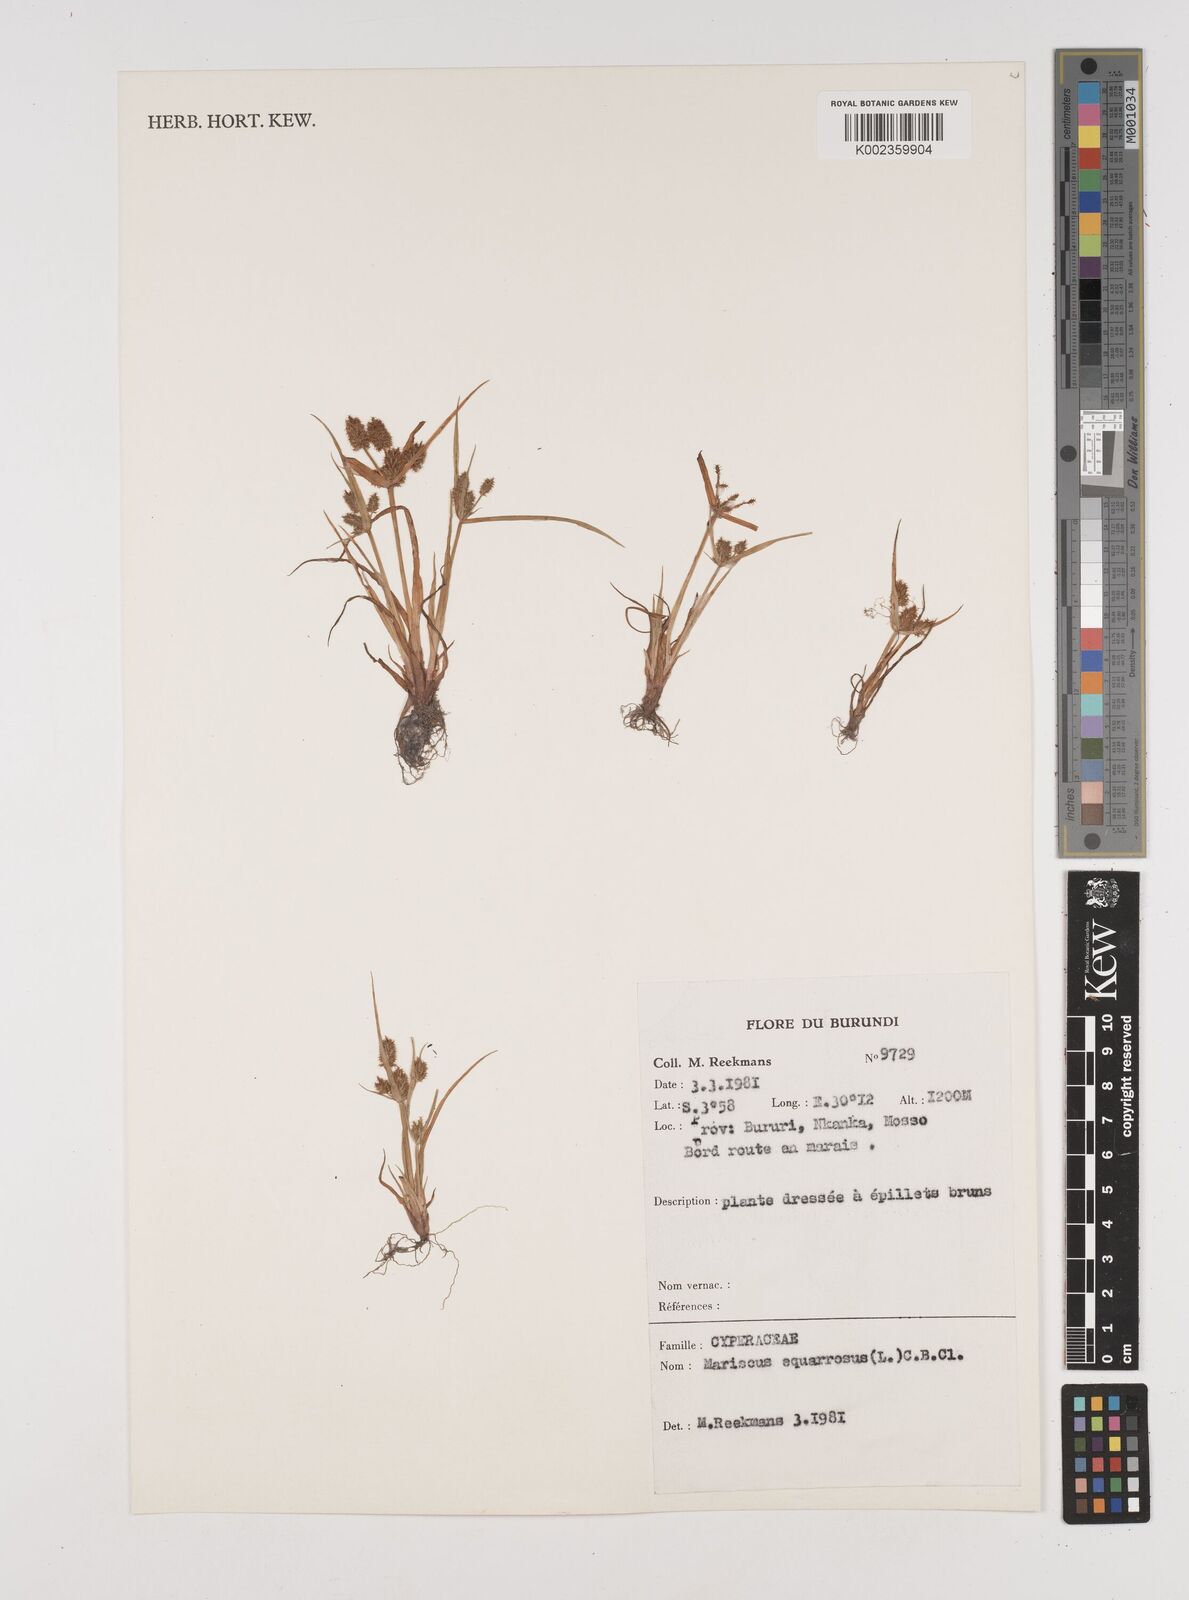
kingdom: Plantae
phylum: Tracheophyta
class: Liliopsida
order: Poales
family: Cyperaceae
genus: Cyperus
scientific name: Cyperus squarrosus
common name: Awned cyperus
